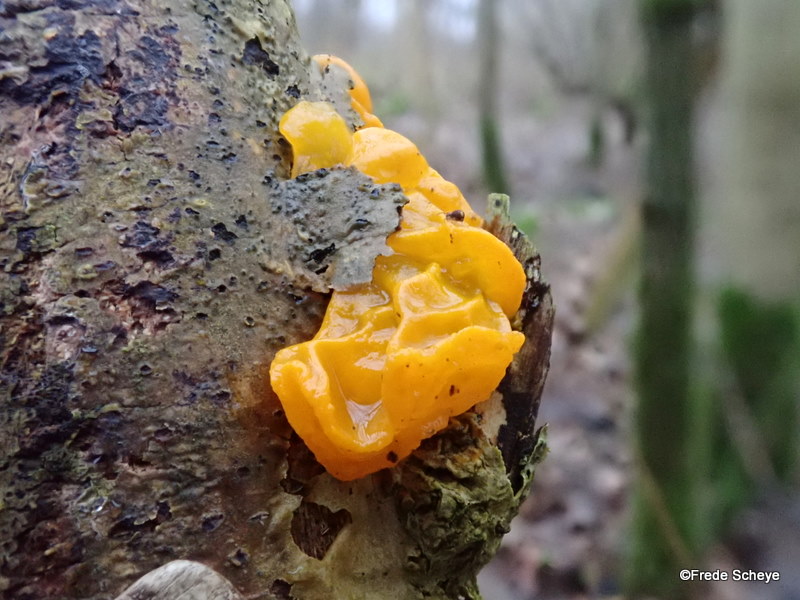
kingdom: Fungi
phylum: Basidiomycota
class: Tremellomycetes
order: Tremellales
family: Tremellaceae
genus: Tremella
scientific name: Tremella mesenterica
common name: gul bævresvamp
